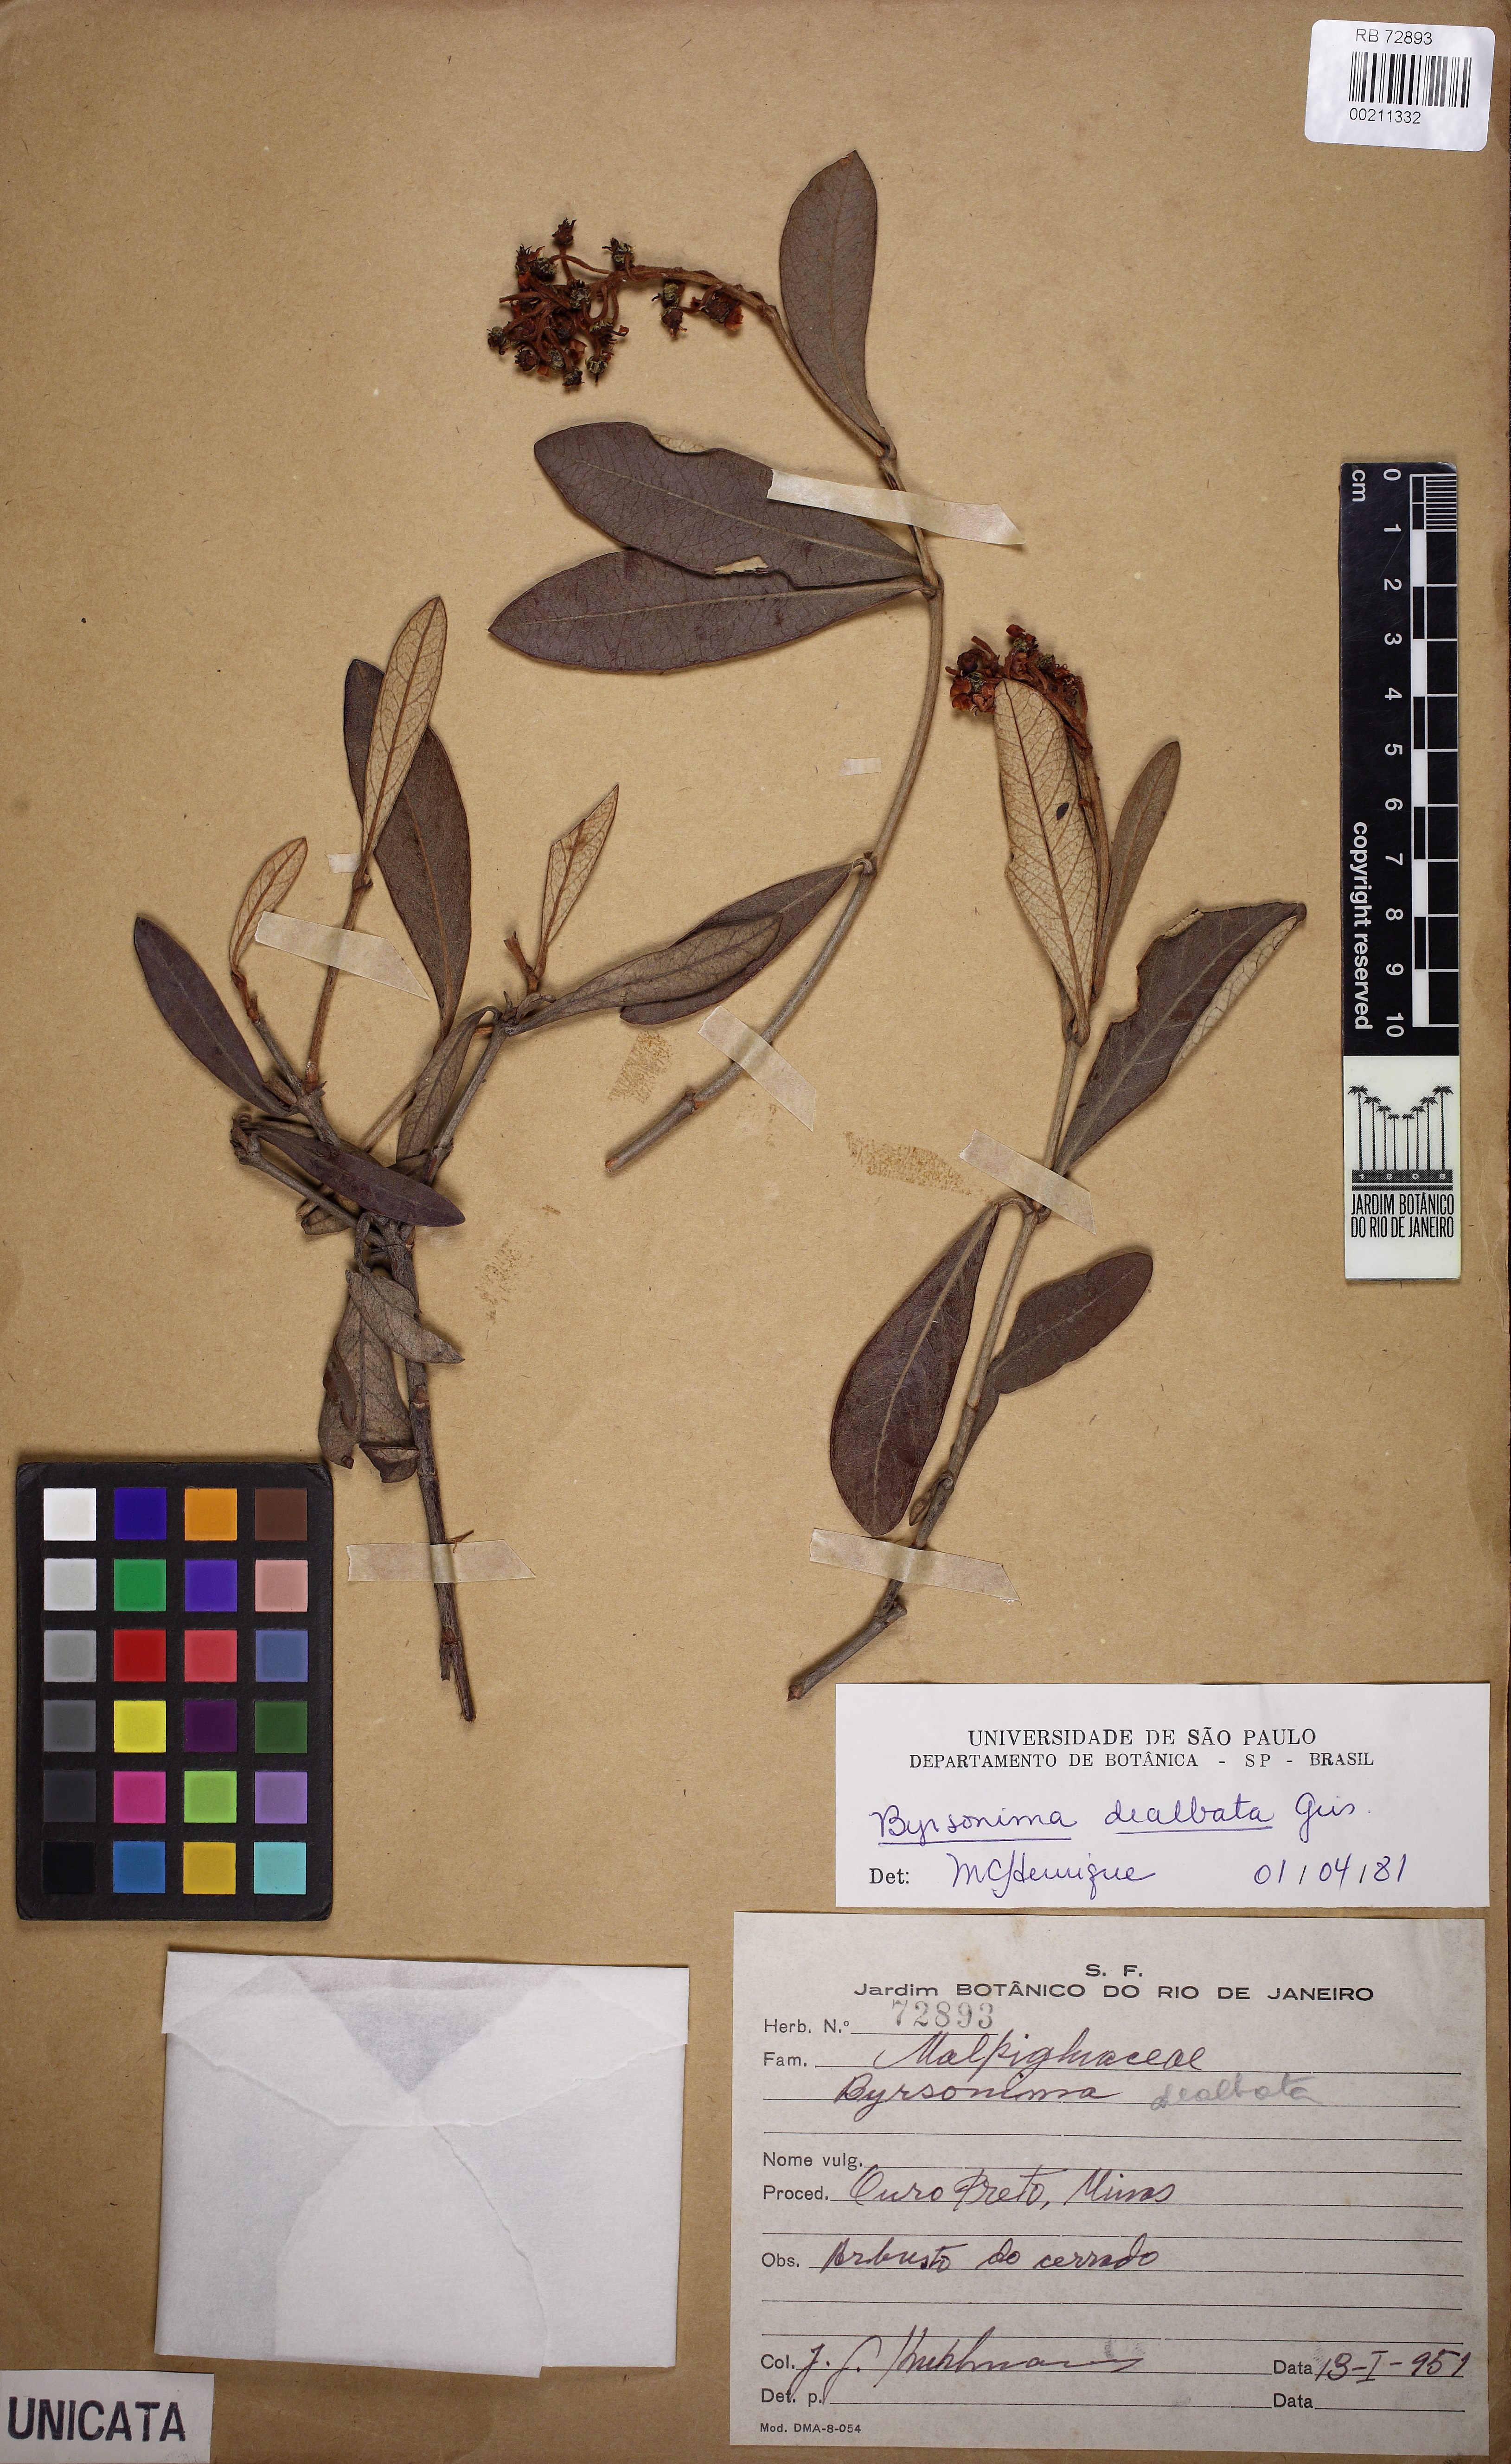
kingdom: Plantae
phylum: Tracheophyta
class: Magnoliopsida
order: Malpighiales
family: Malpighiaceae
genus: Byrsonima
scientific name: Byrsonima dealbata
